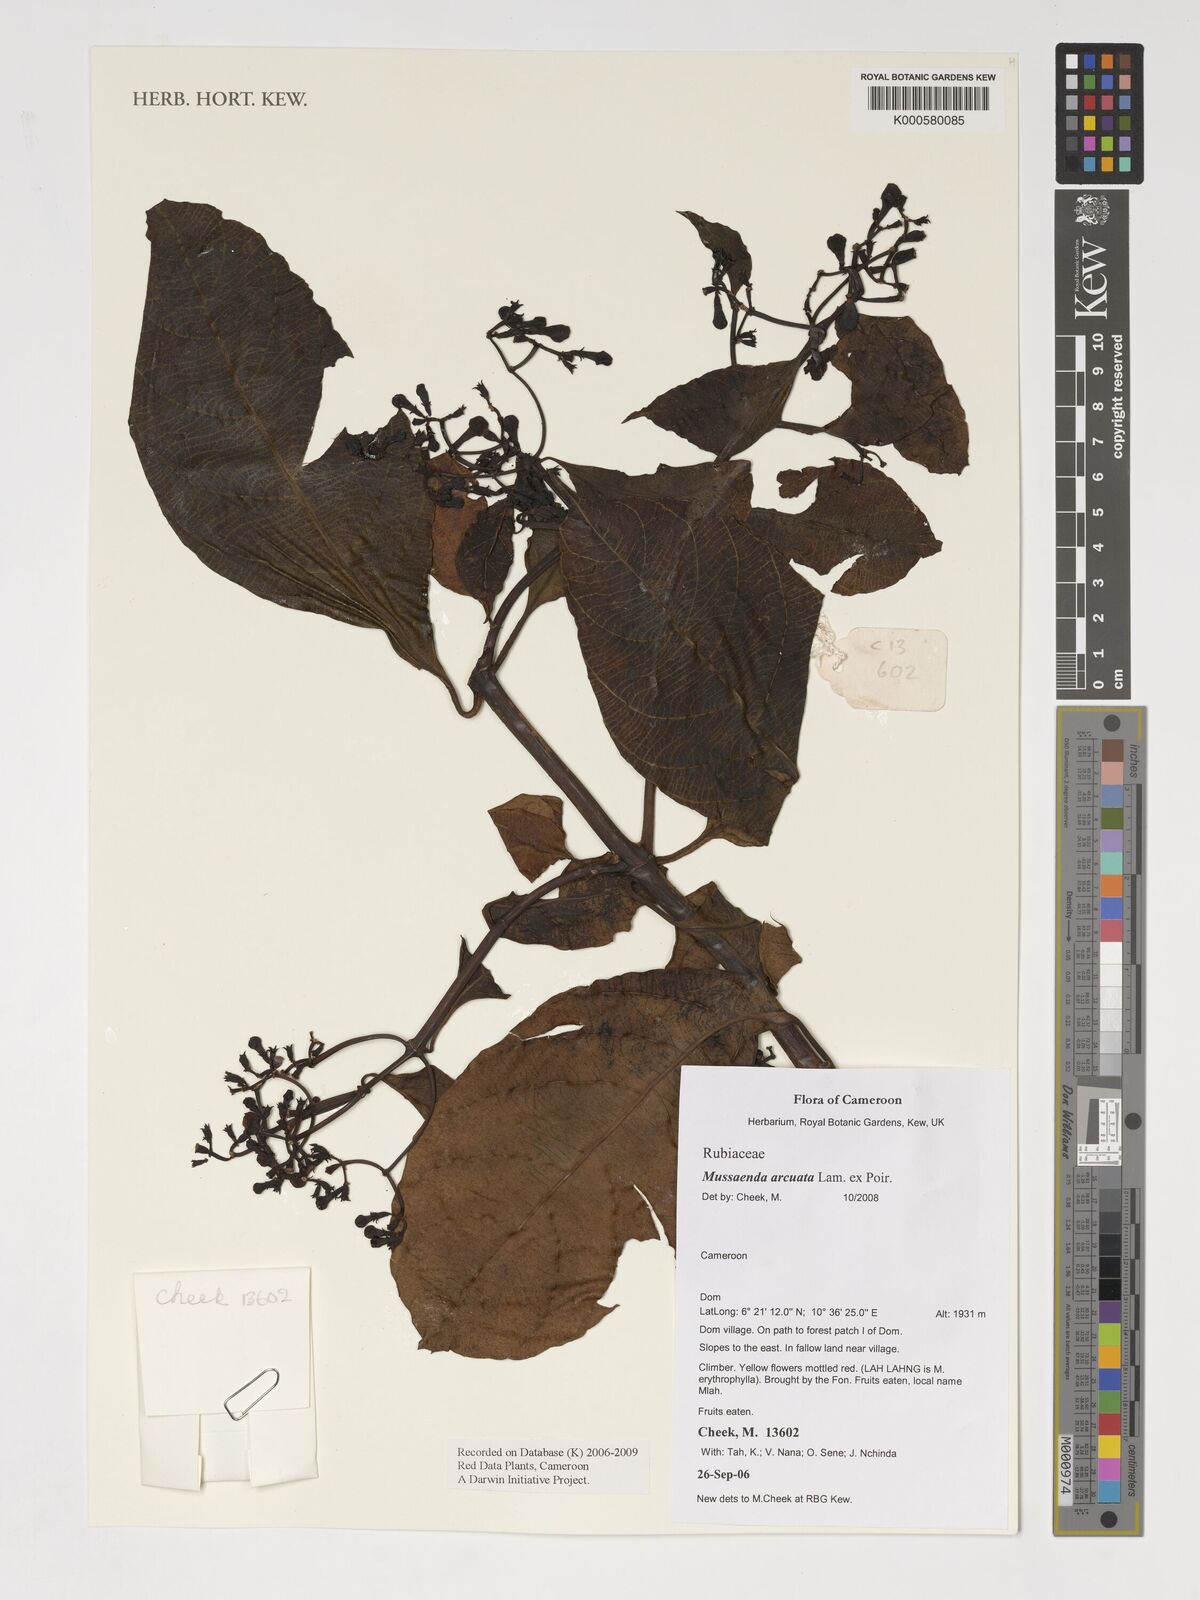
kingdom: Plantae
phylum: Tracheophyta
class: Magnoliopsida
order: Gentianales
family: Rubiaceae
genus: Mussaenda
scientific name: Mussaenda arcuata
